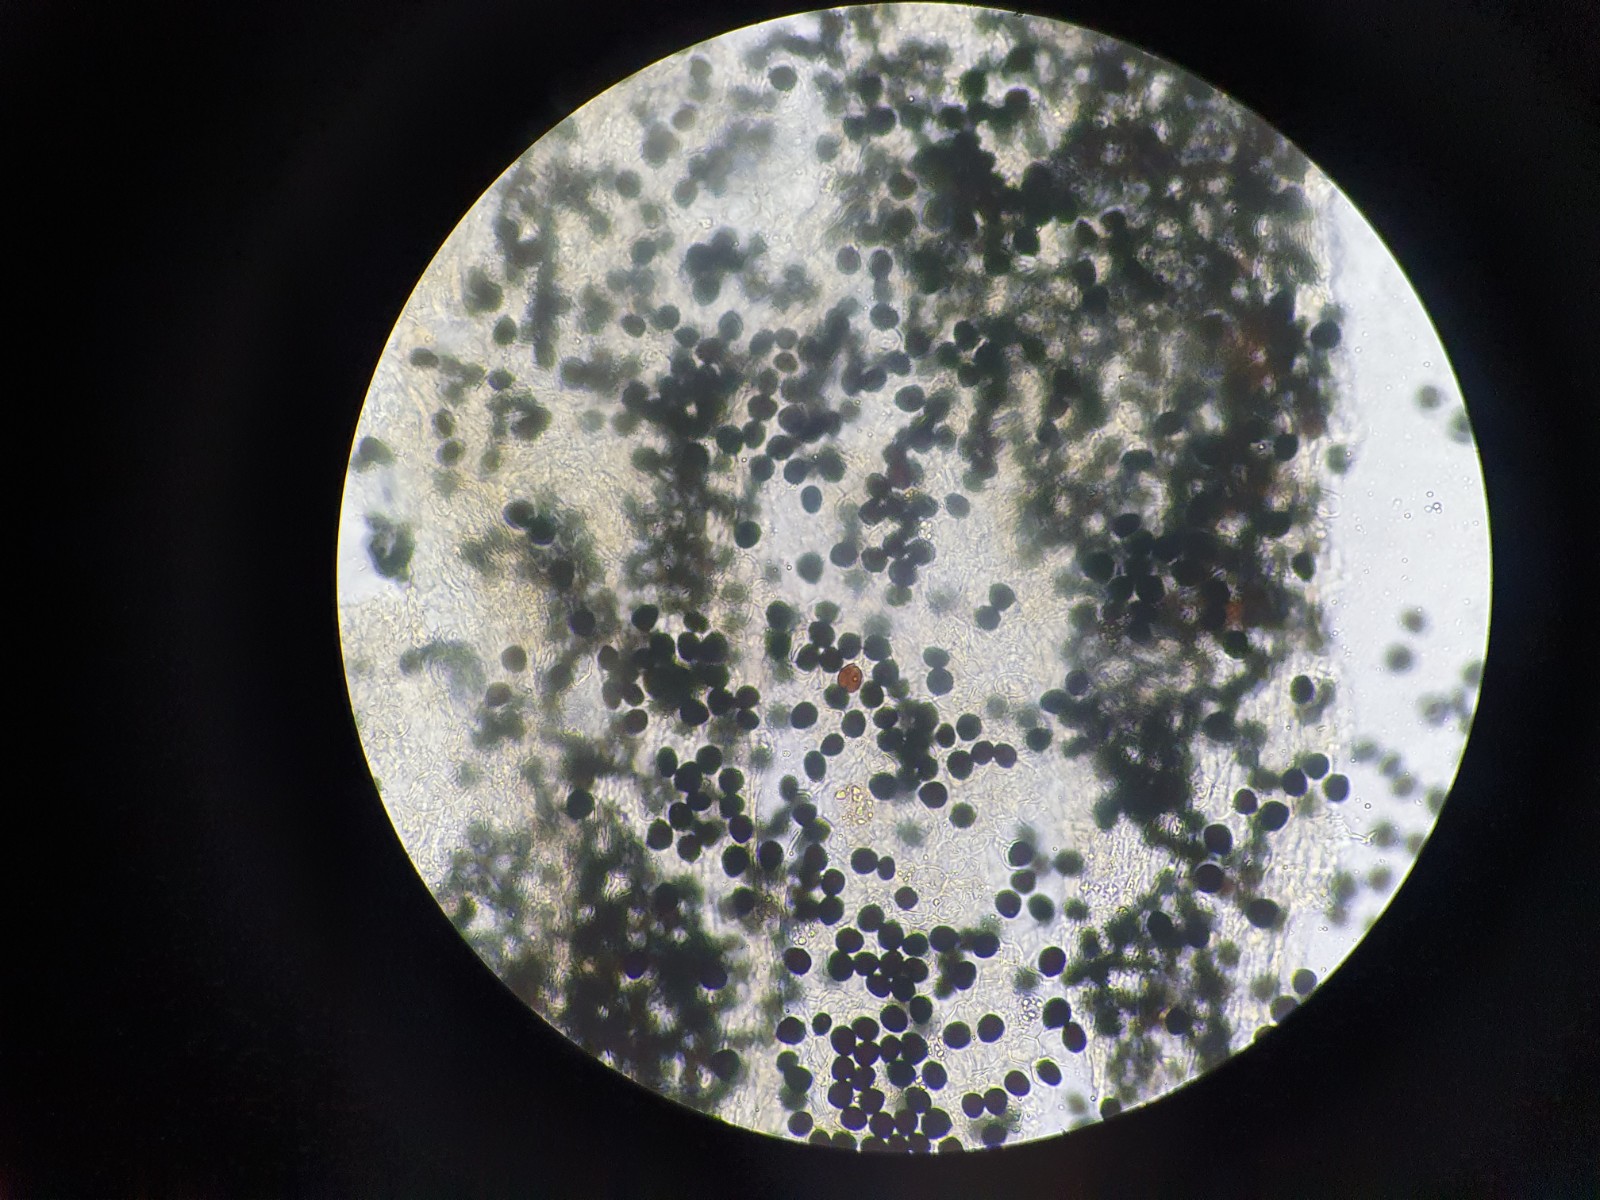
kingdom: Fungi
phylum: Basidiomycota
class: Agaricomycetes
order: Agaricales
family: Psathyrellaceae
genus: Parasola
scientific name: Parasola hercules
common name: Herkules-hjulhat
